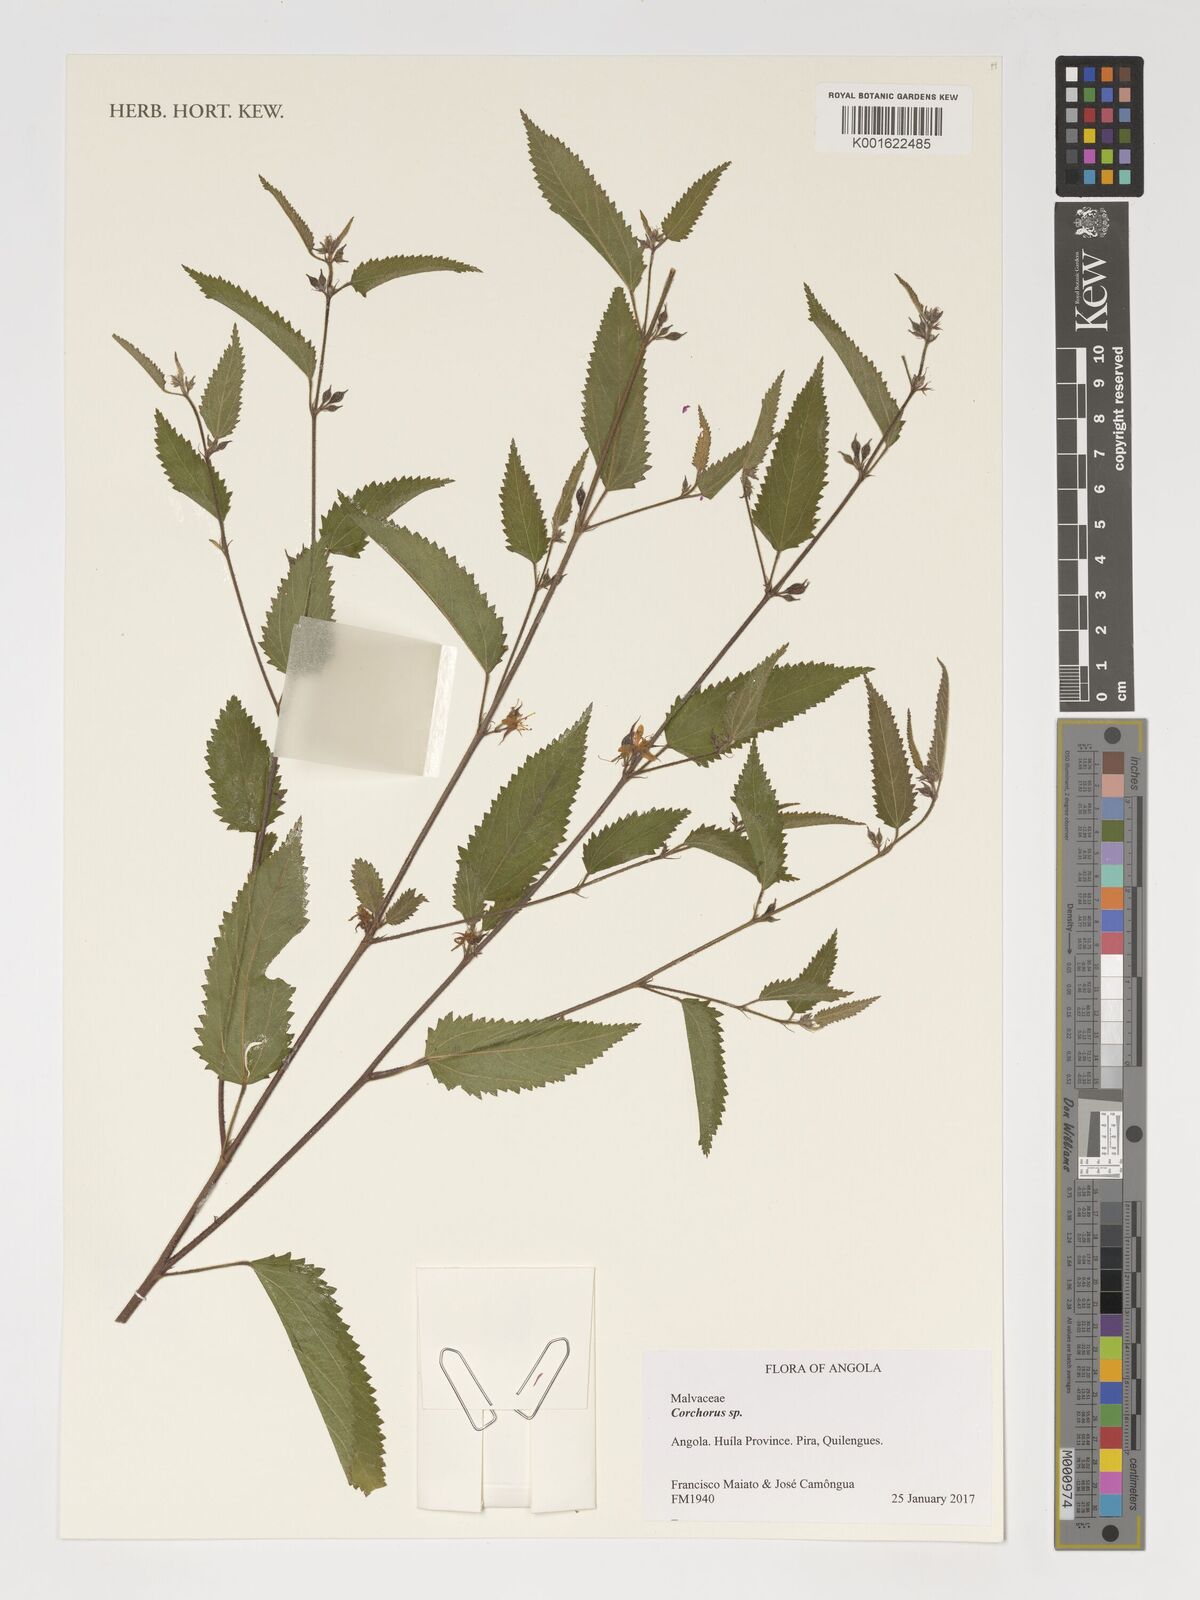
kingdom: Plantae
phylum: Tracheophyta
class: Magnoliopsida
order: Malvales
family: Malvaceae
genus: Corchorus
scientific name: Corchorus
